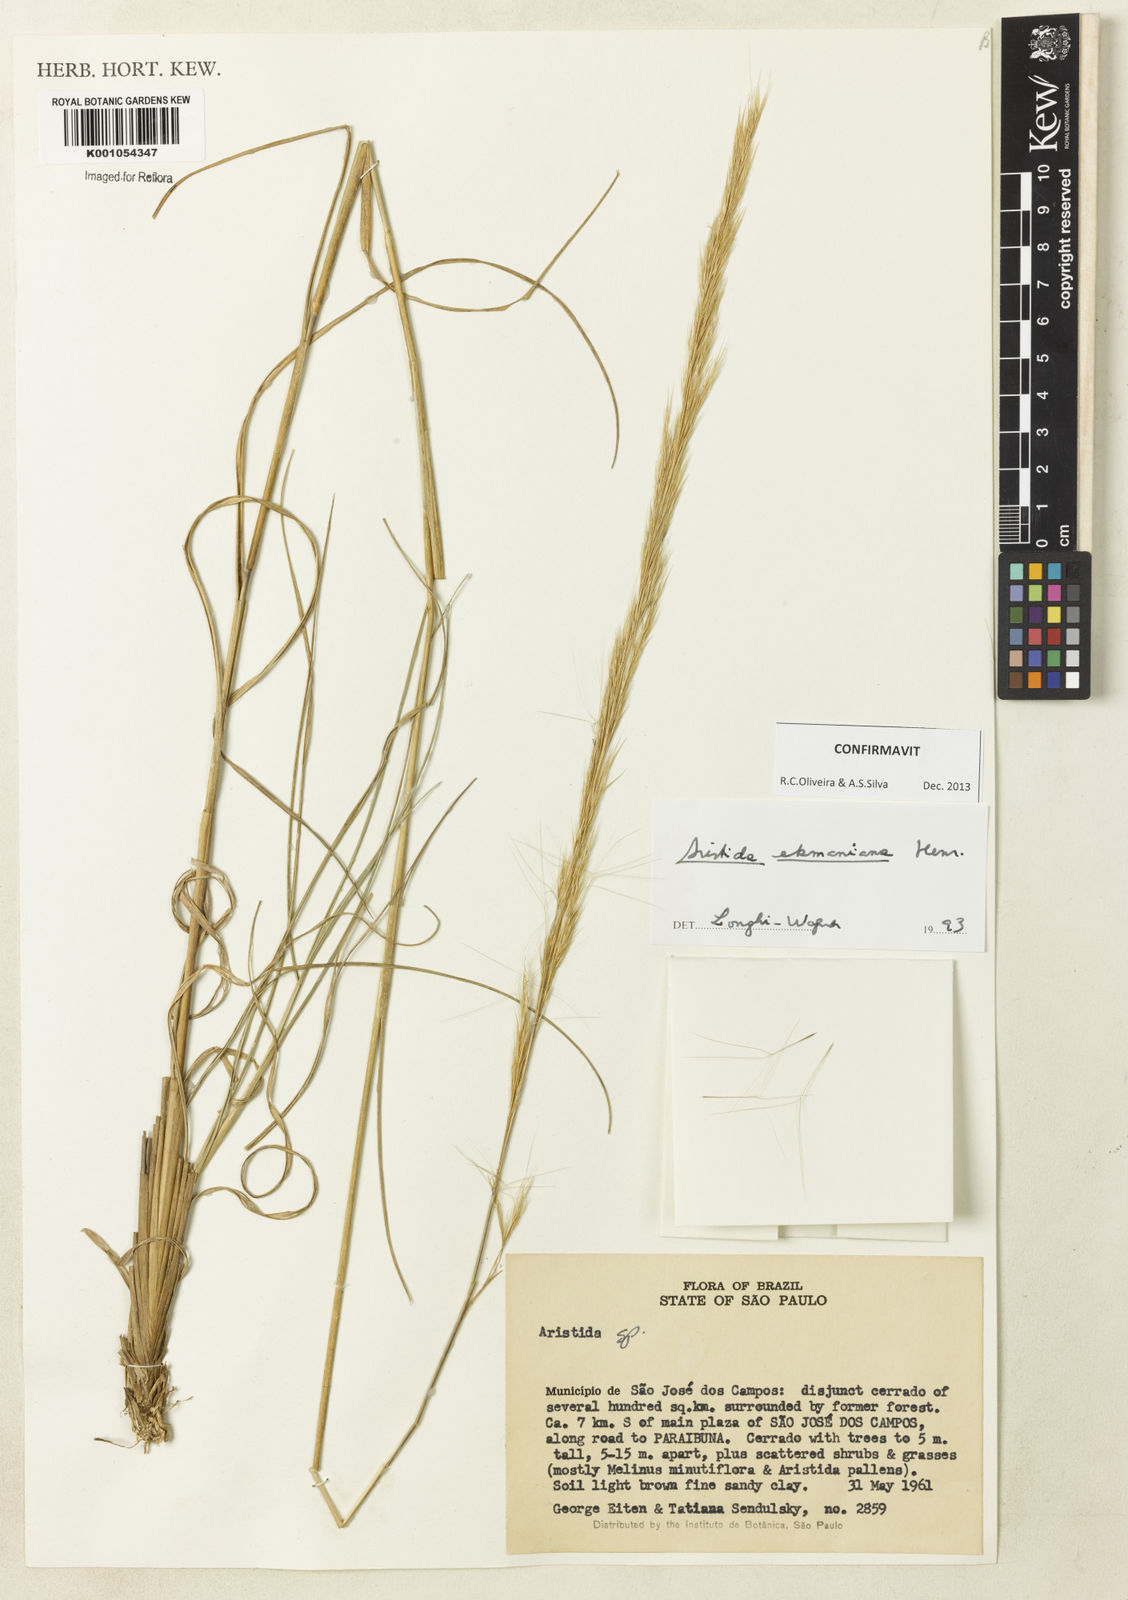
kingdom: Plantae
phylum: Tracheophyta
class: Liliopsida
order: Poales
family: Poaceae
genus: Aristida
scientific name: Aristida ekmaniana
